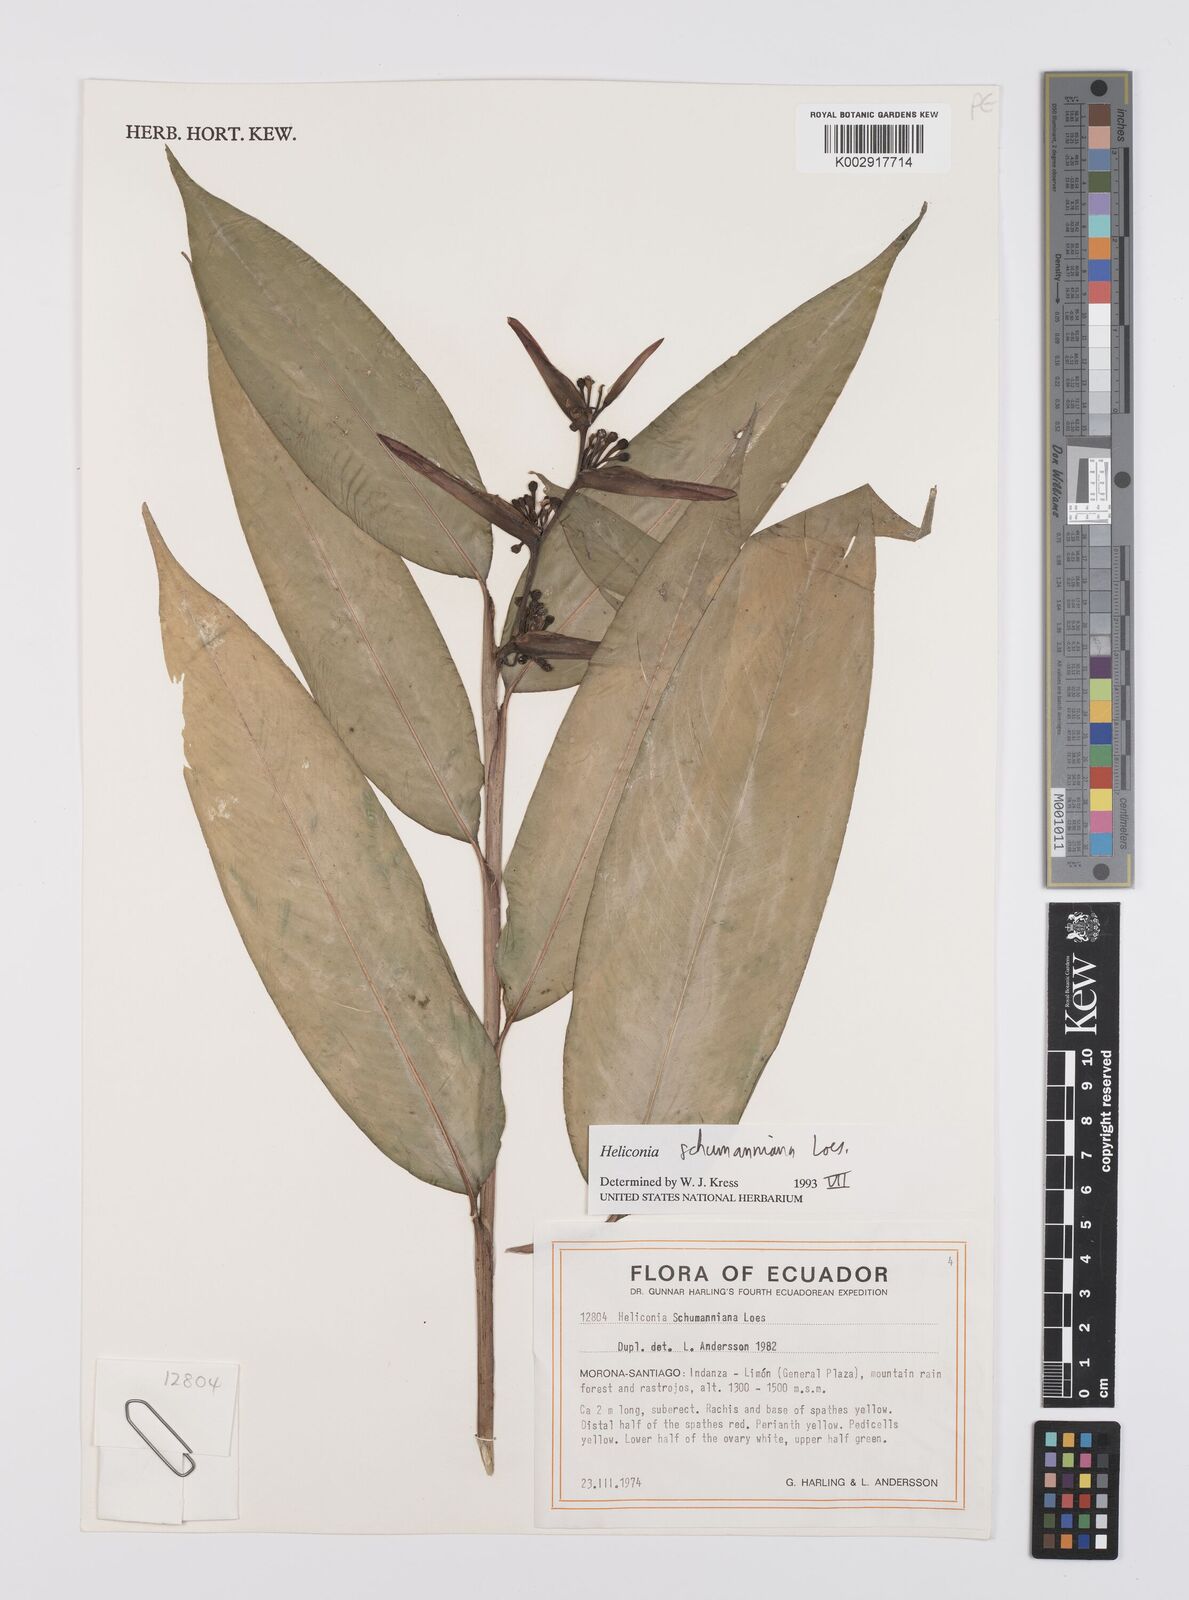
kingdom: Plantae
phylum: Tracheophyta
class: Liliopsida
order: Zingiberales
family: Heliconiaceae
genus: Heliconia
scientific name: Heliconia schumanniana
